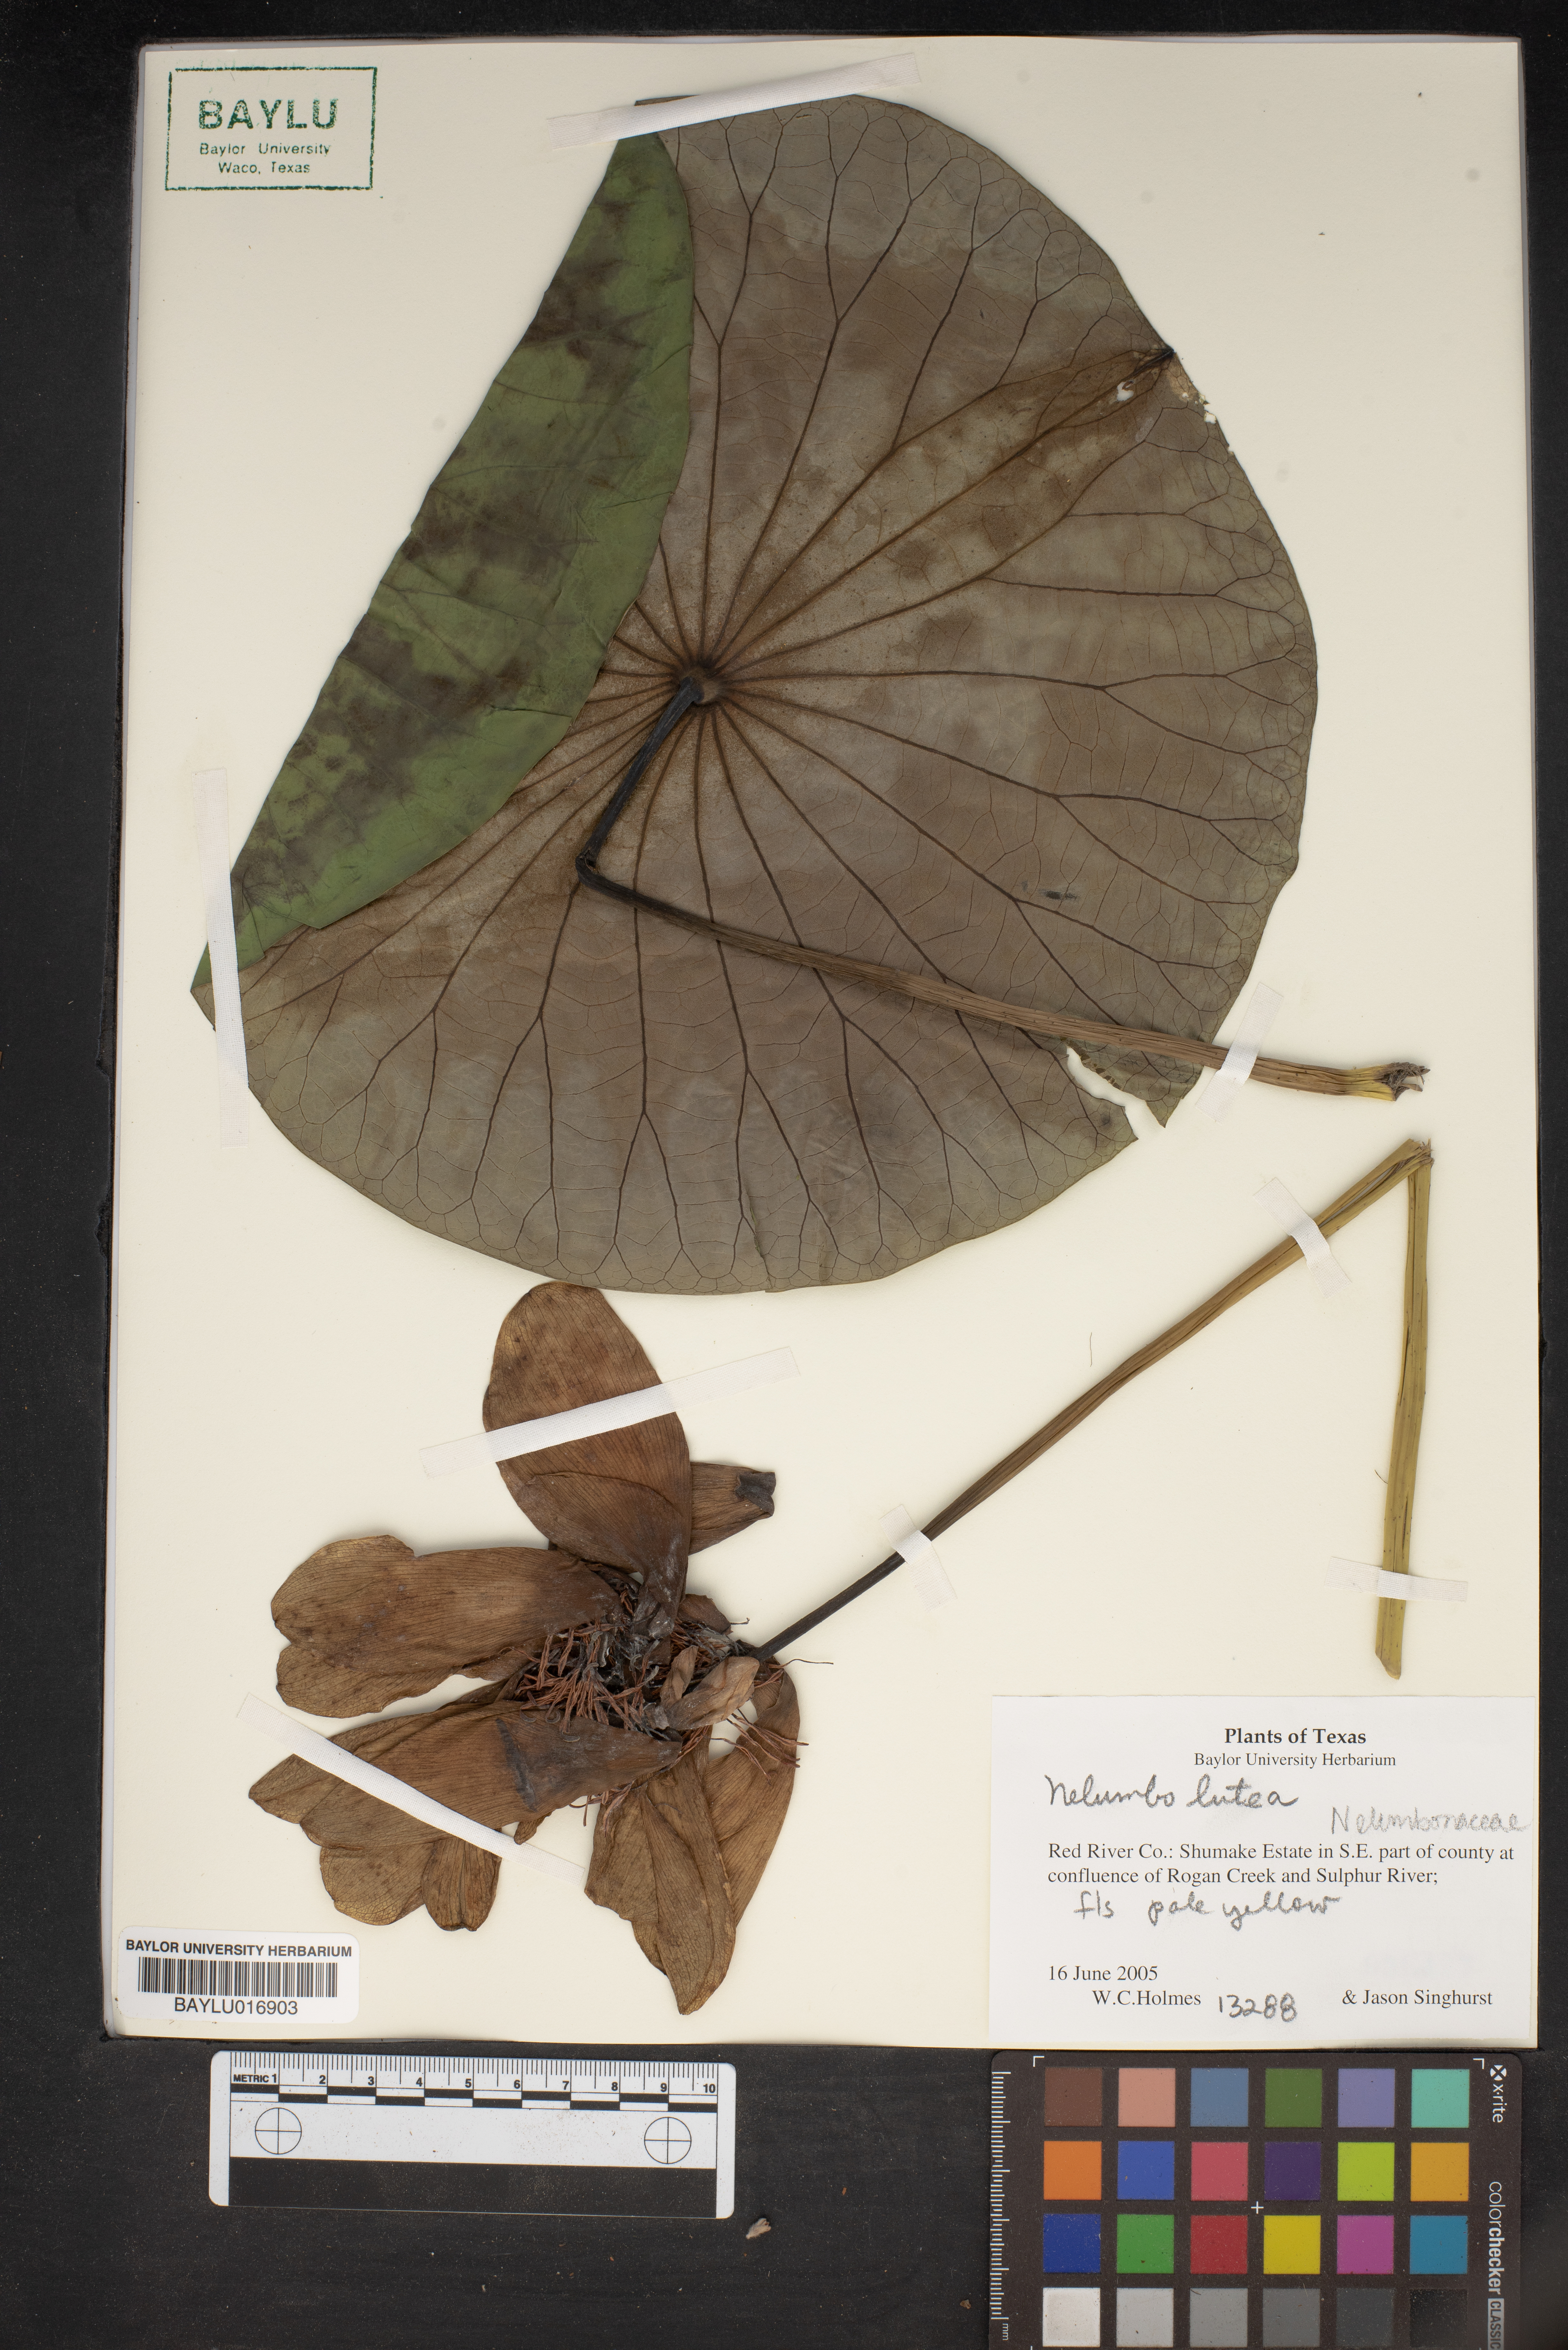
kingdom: Plantae
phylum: Tracheophyta
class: Magnoliopsida
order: Proteales
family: Nelumbonaceae
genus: Nelumbo
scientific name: Nelumbo lutea
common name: American lotus
